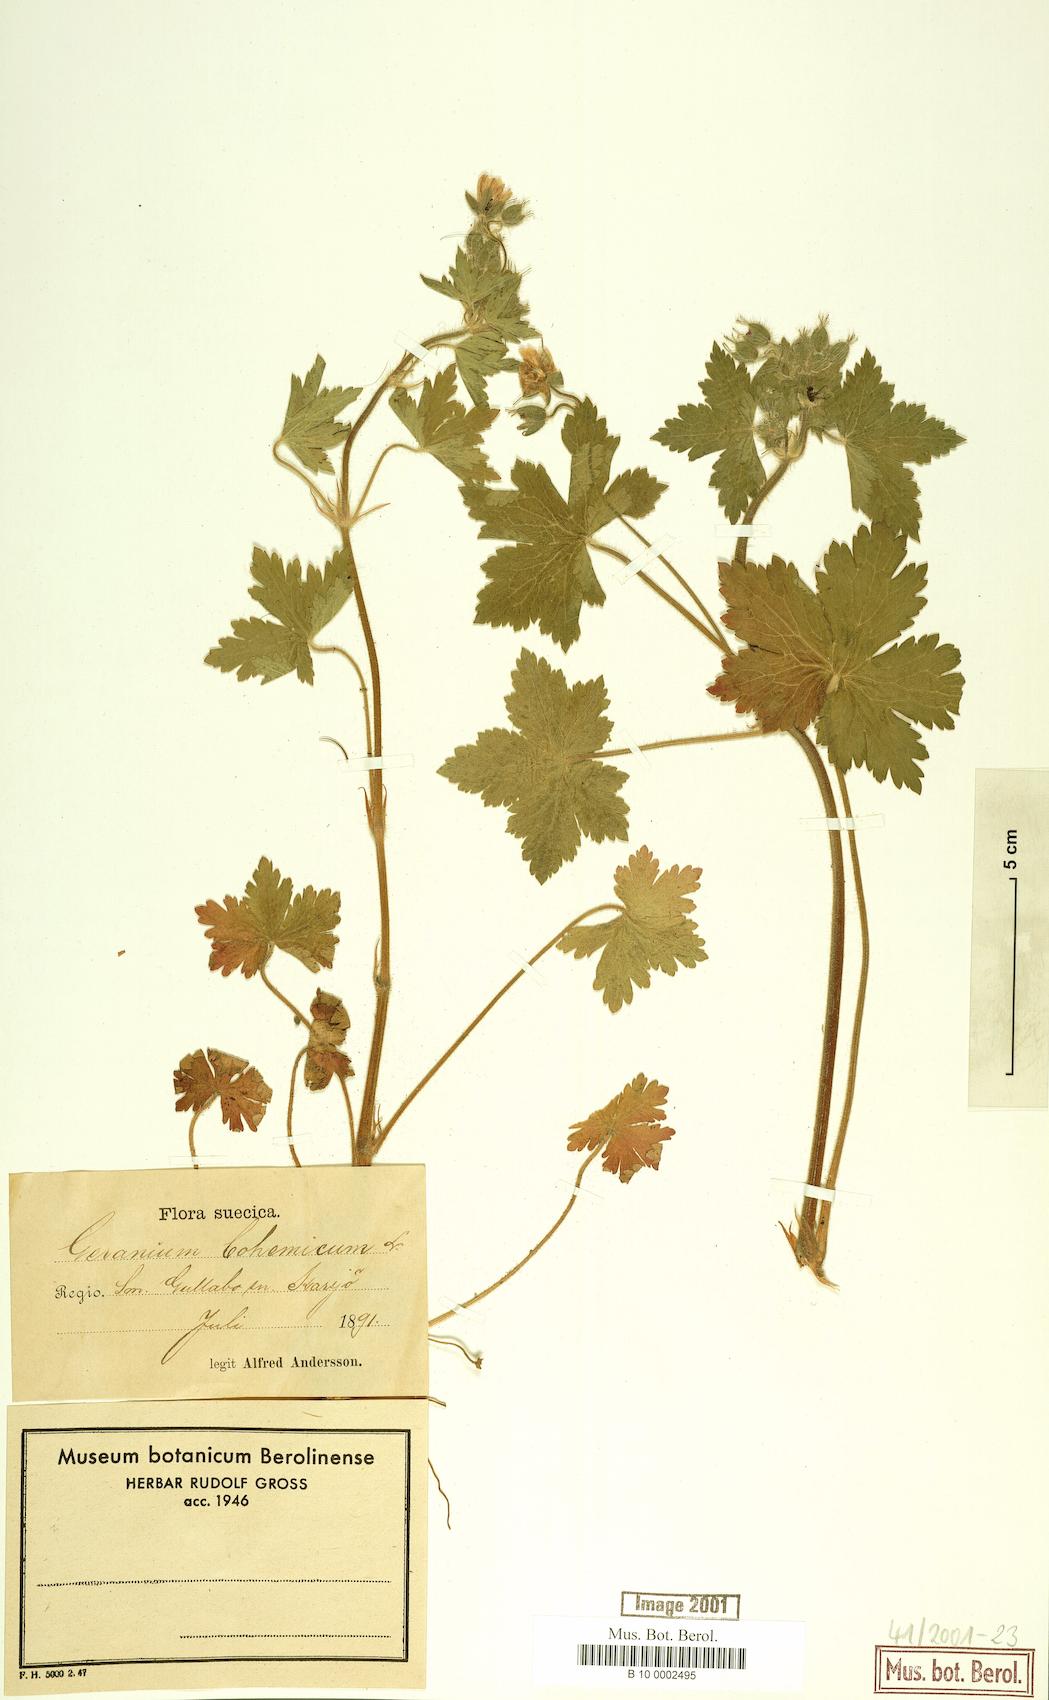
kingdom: Plantae
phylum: Tracheophyta
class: Magnoliopsida
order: Geraniales
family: Geraniaceae
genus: Geranium
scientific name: Geranium bohemicum
